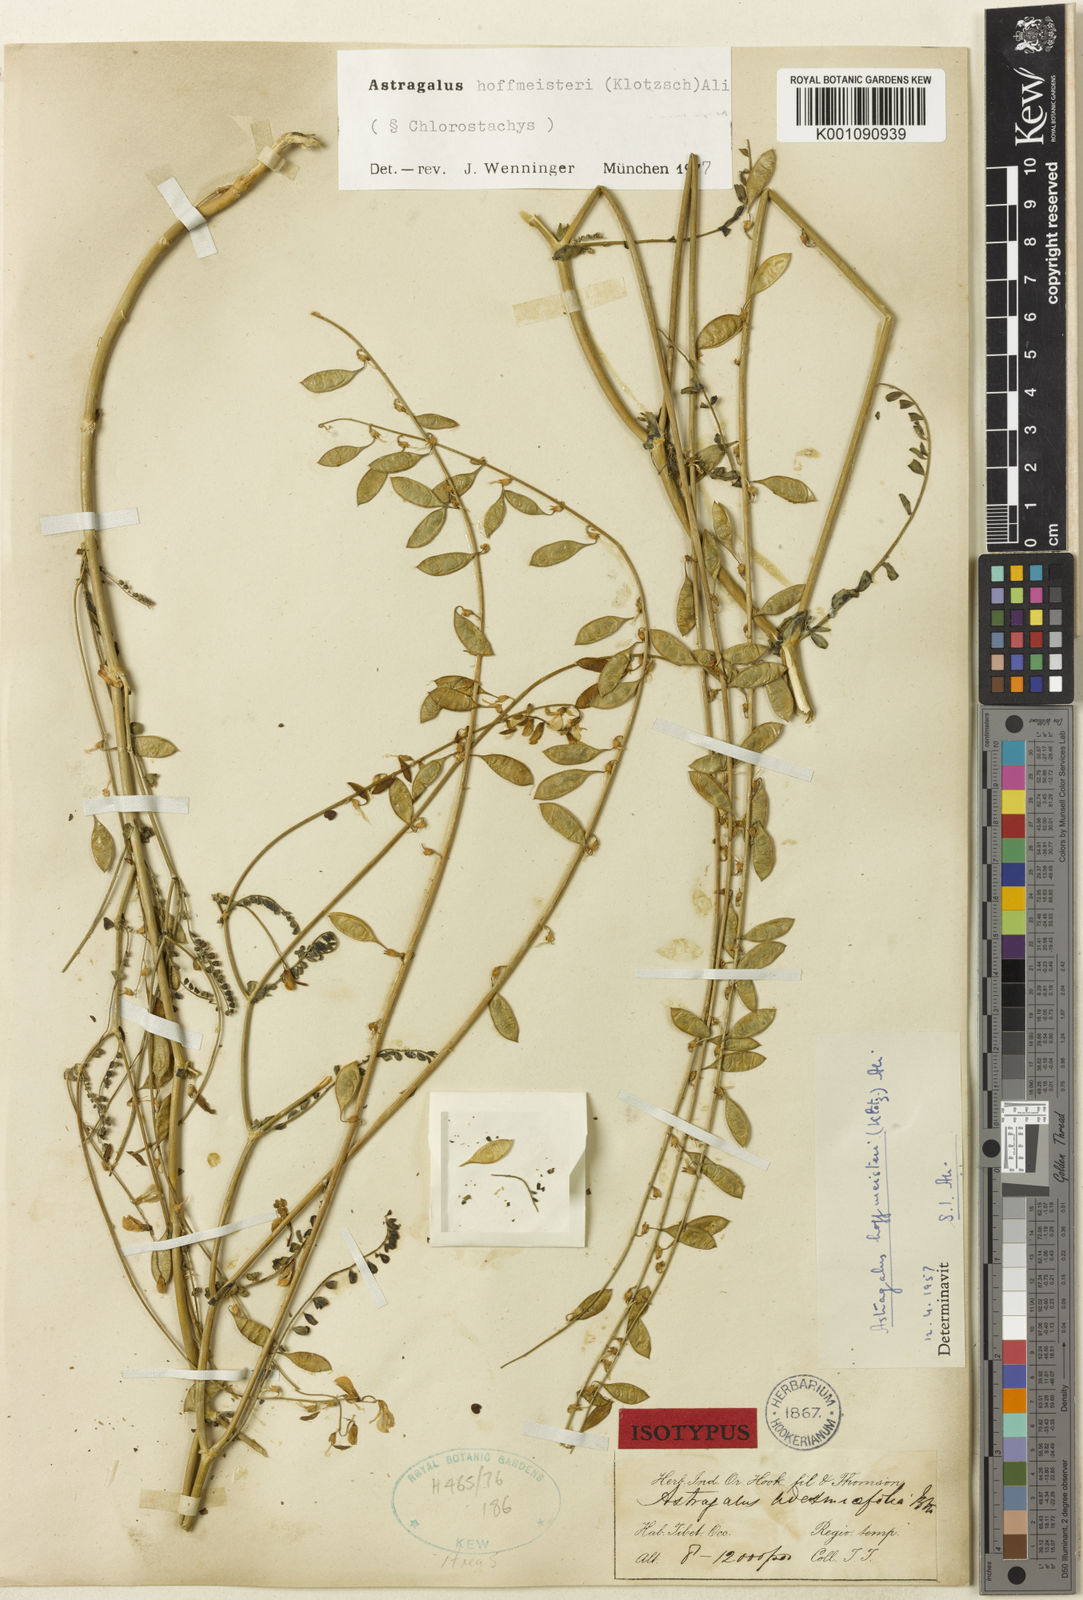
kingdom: Plantae
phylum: Tracheophyta
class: Magnoliopsida
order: Fabales
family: Fabaceae
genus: Astragalus
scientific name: Astragalus hoffmeisteri
